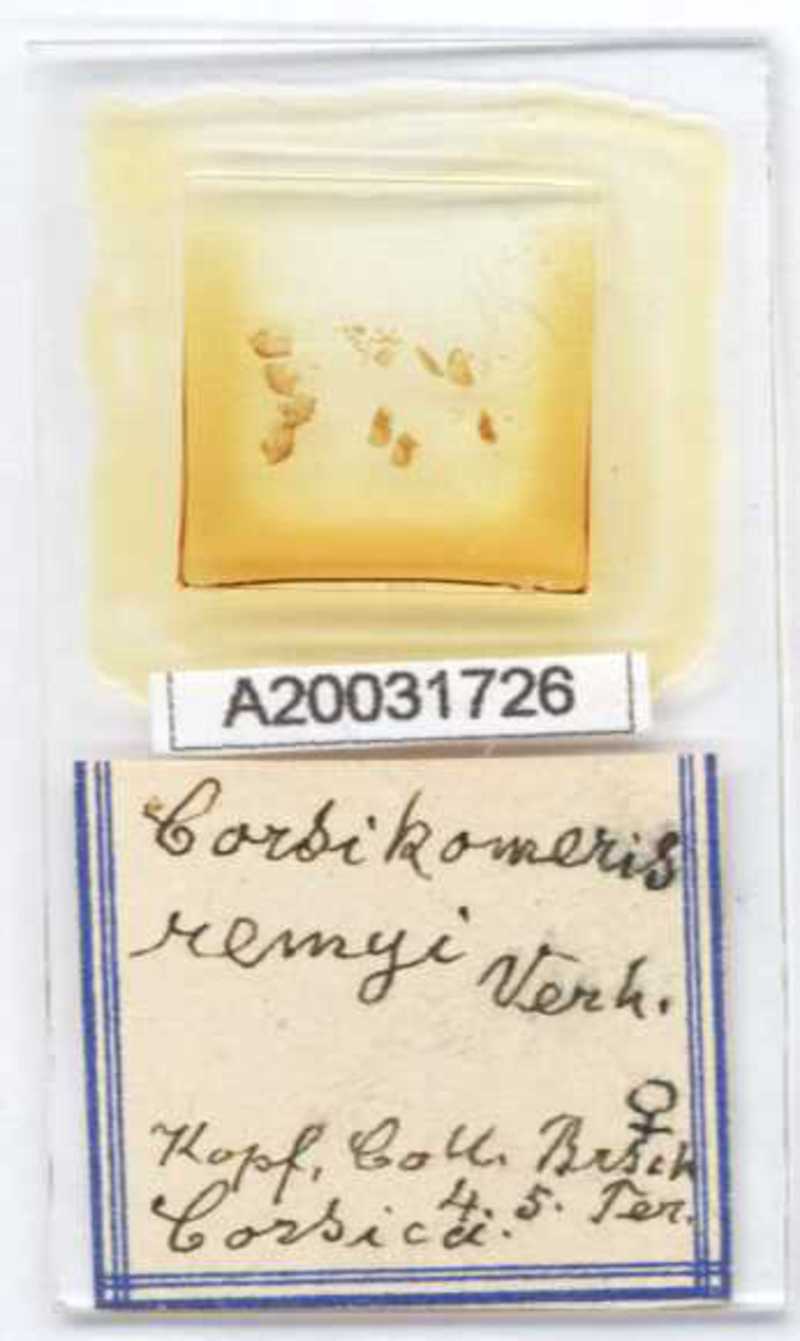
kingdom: Animalia
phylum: Arthropoda
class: Diplopoda
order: Glomerida
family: Glomeridae
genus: Doderia
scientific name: Doderia remyi
